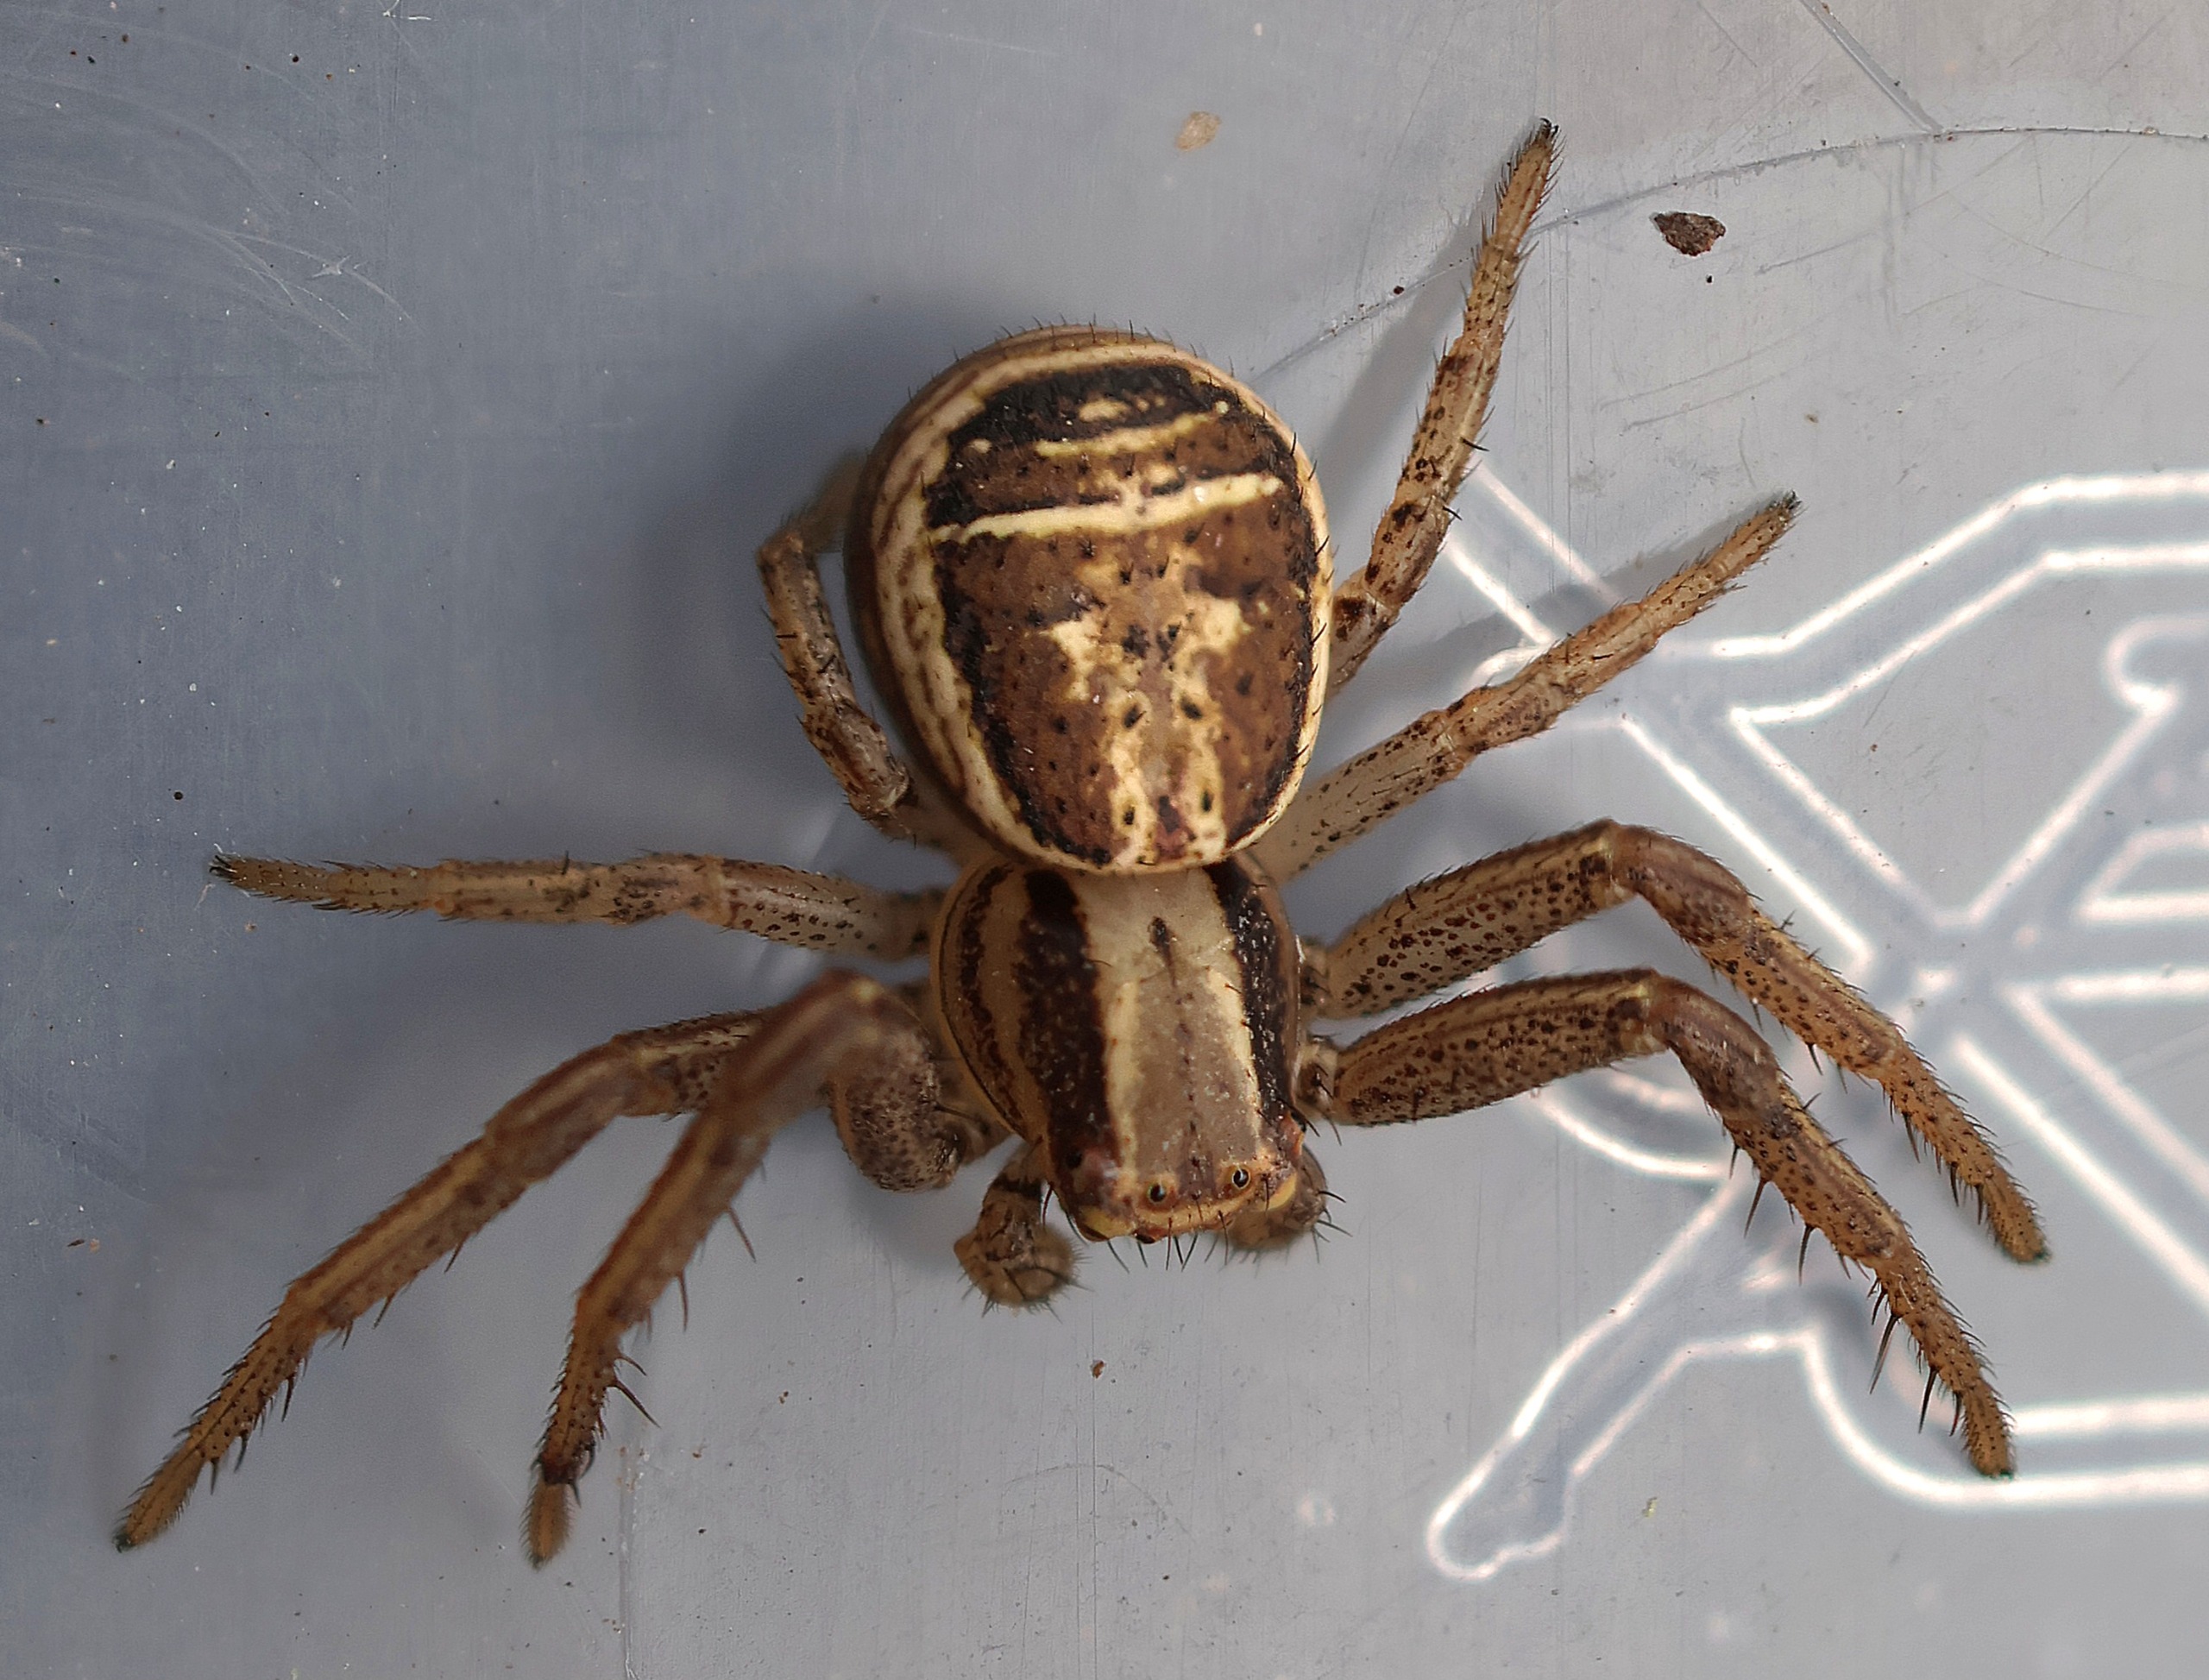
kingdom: Animalia
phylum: Arthropoda
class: Arachnida
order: Araneae
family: Thomisidae
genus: Xysticus
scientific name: Xysticus ulmi
